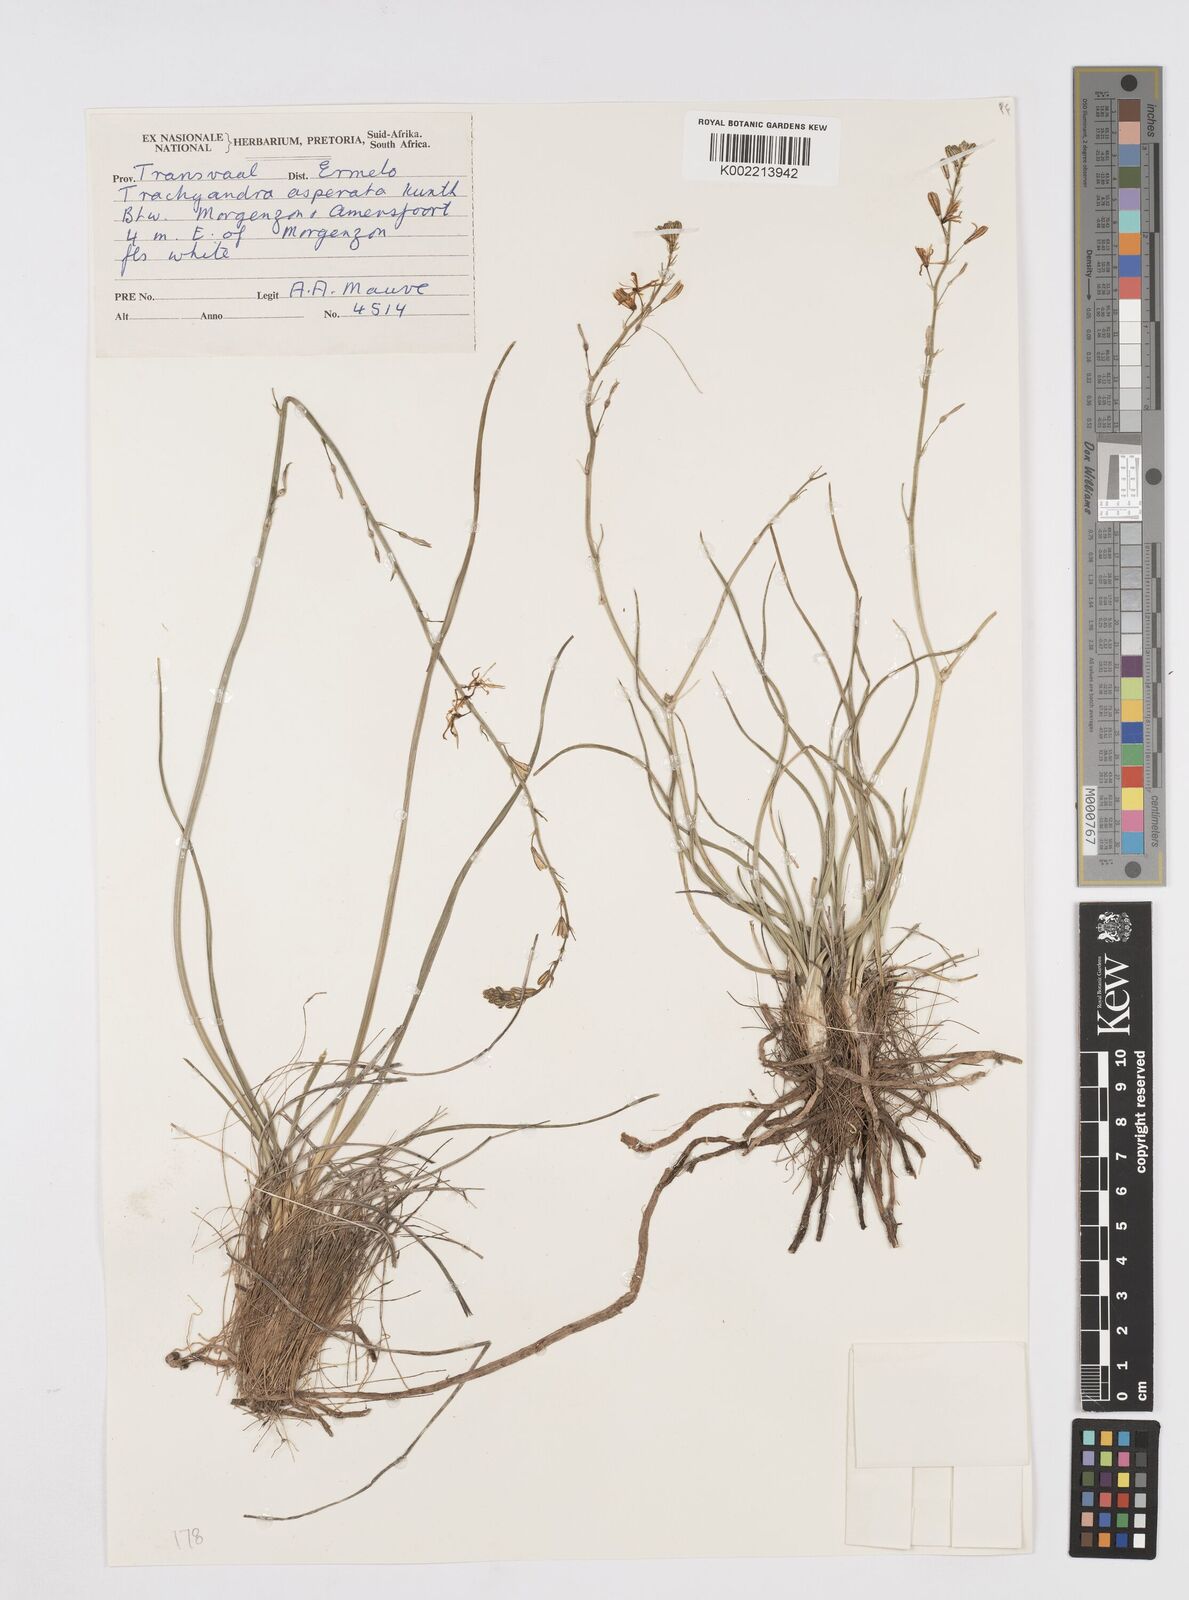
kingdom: Plantae
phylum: Tracheophyta
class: Liliopsida
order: Asparagales
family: Asphodelaceae
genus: Trachyandra
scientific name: Trachyandra asperata
